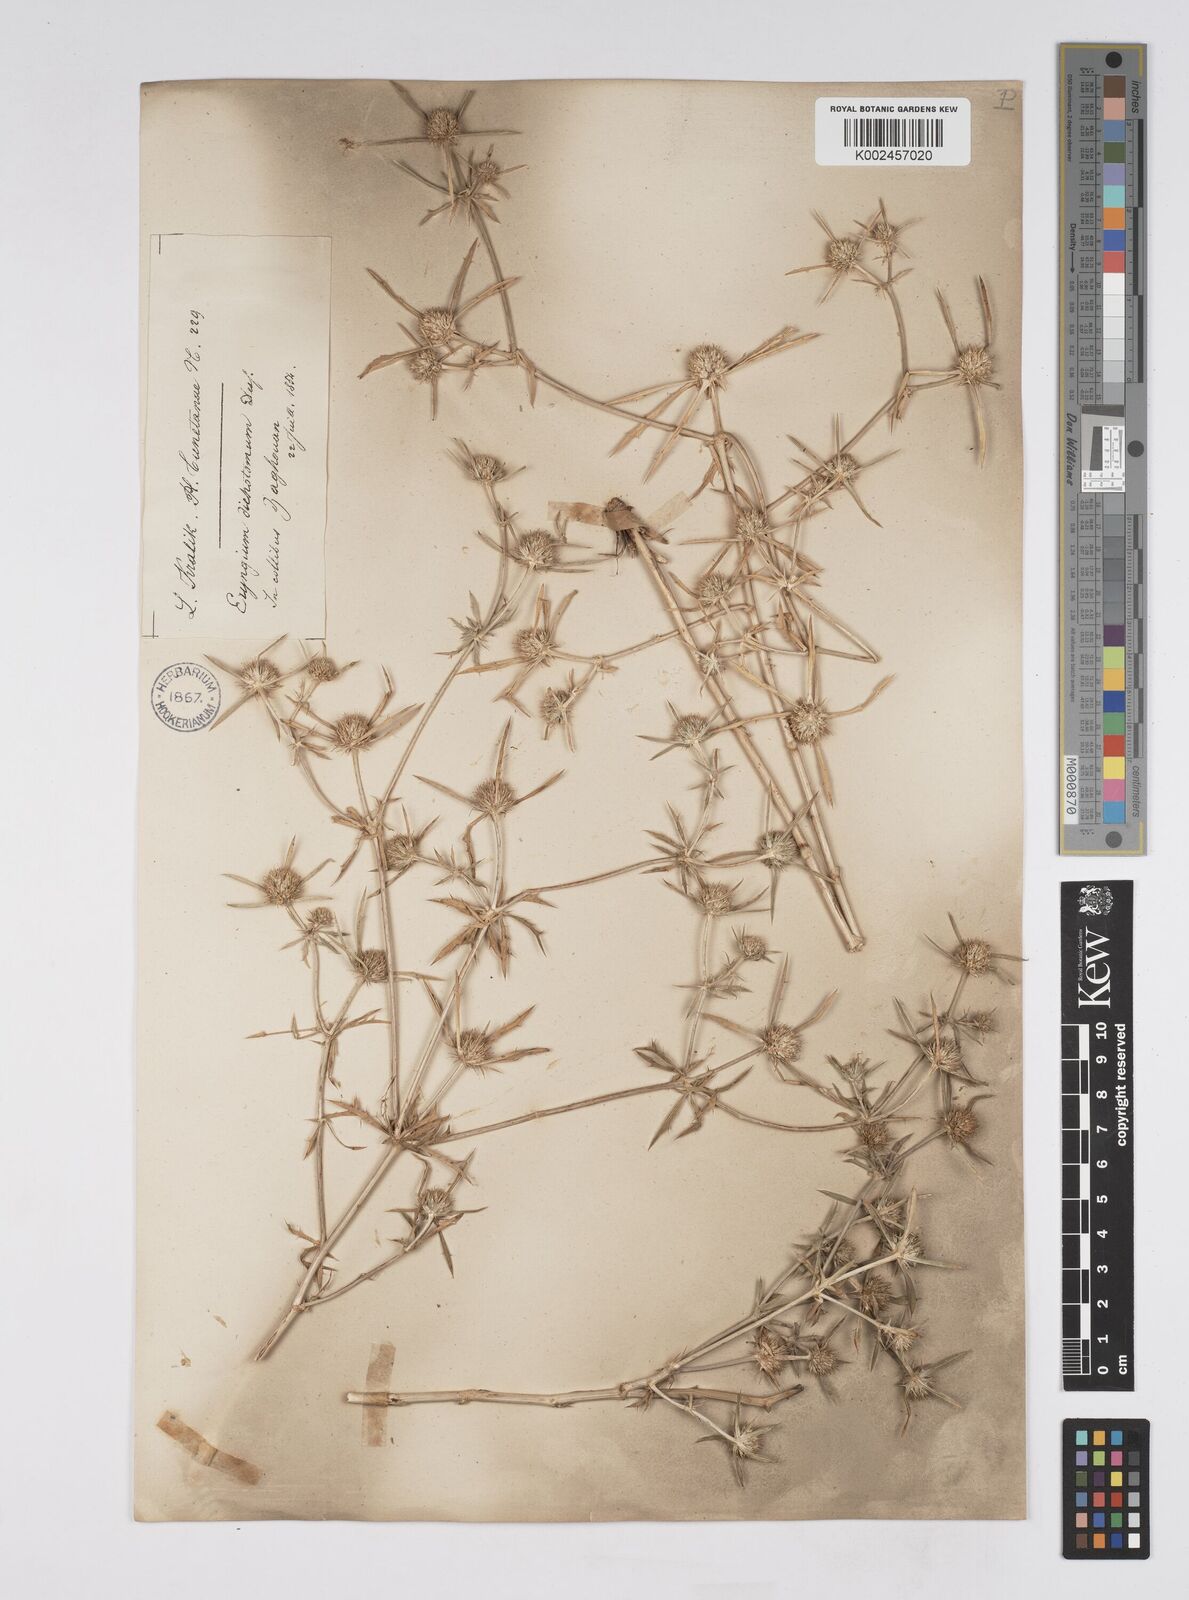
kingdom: Plantae
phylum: Tracheophyta
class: Magnoliopsida
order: Apiales
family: Apiaceae
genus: Eryngium
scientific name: Eryngium dichotomum
